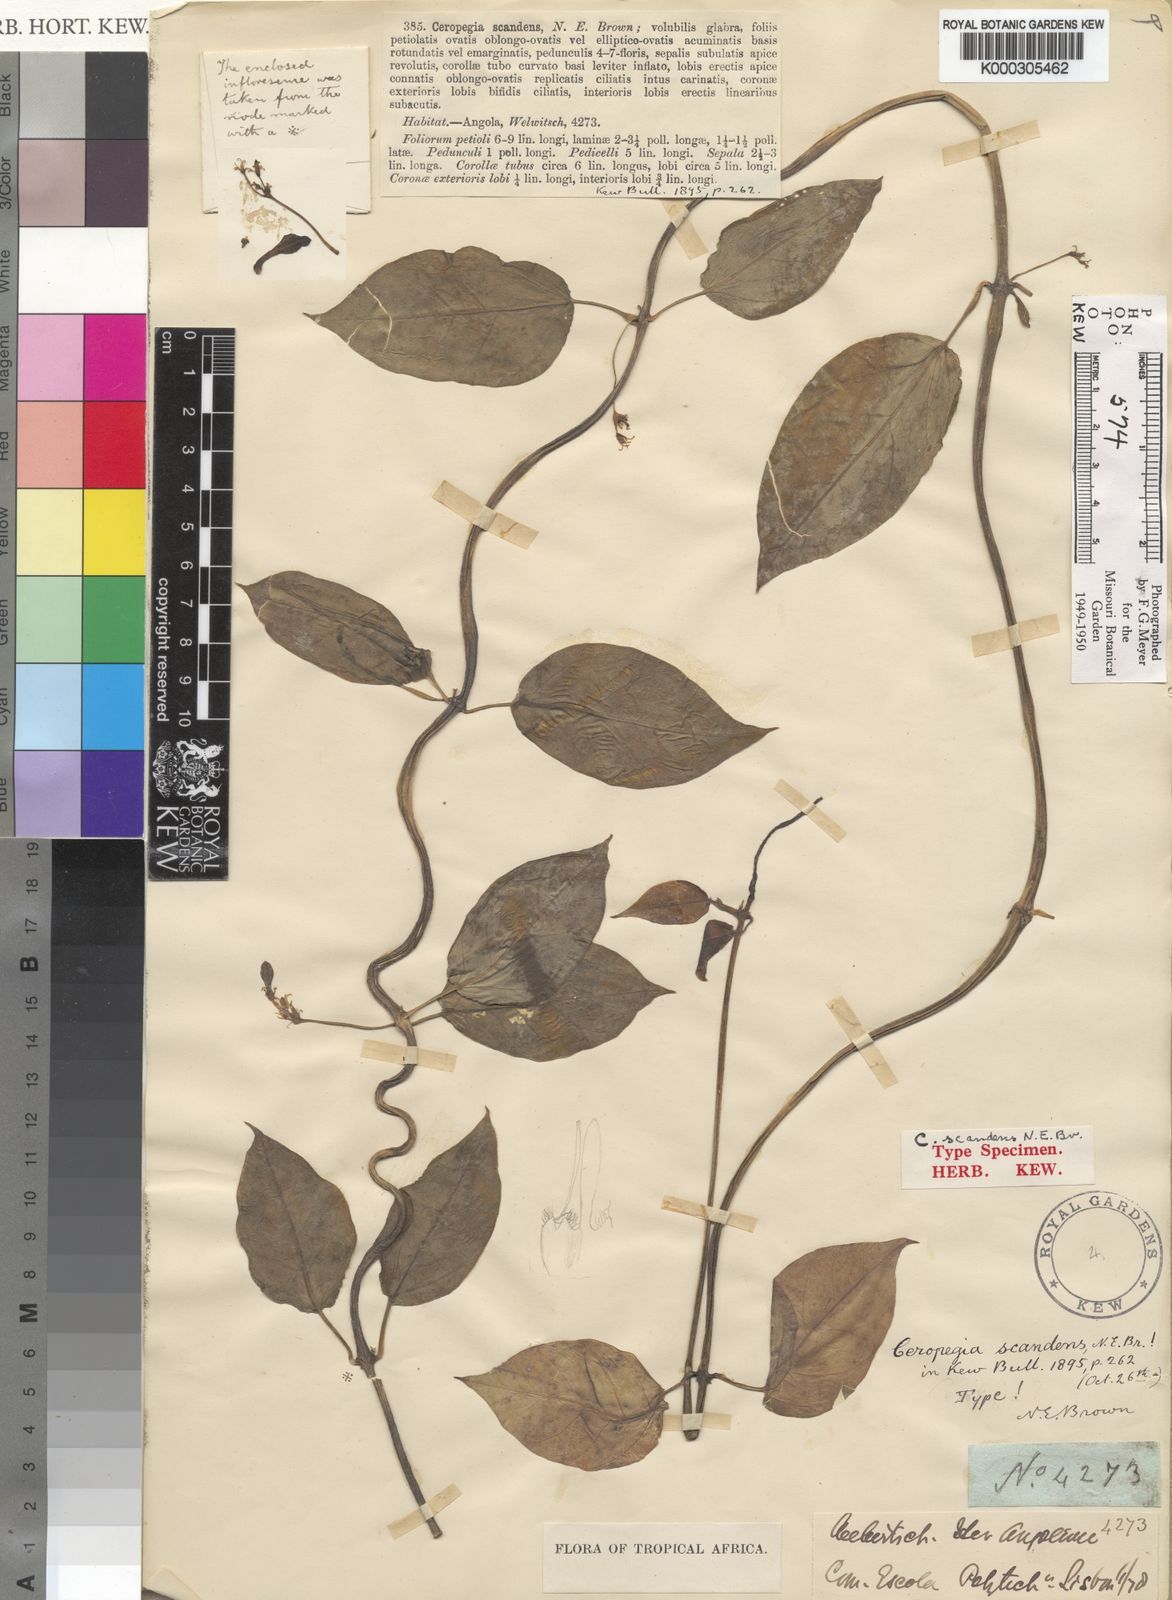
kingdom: Plantae
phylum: Tracheophyta
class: Magnoliopsida
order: Gentianales
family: Apocynaceae
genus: Ceropegia
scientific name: Ceropegia volubilis
